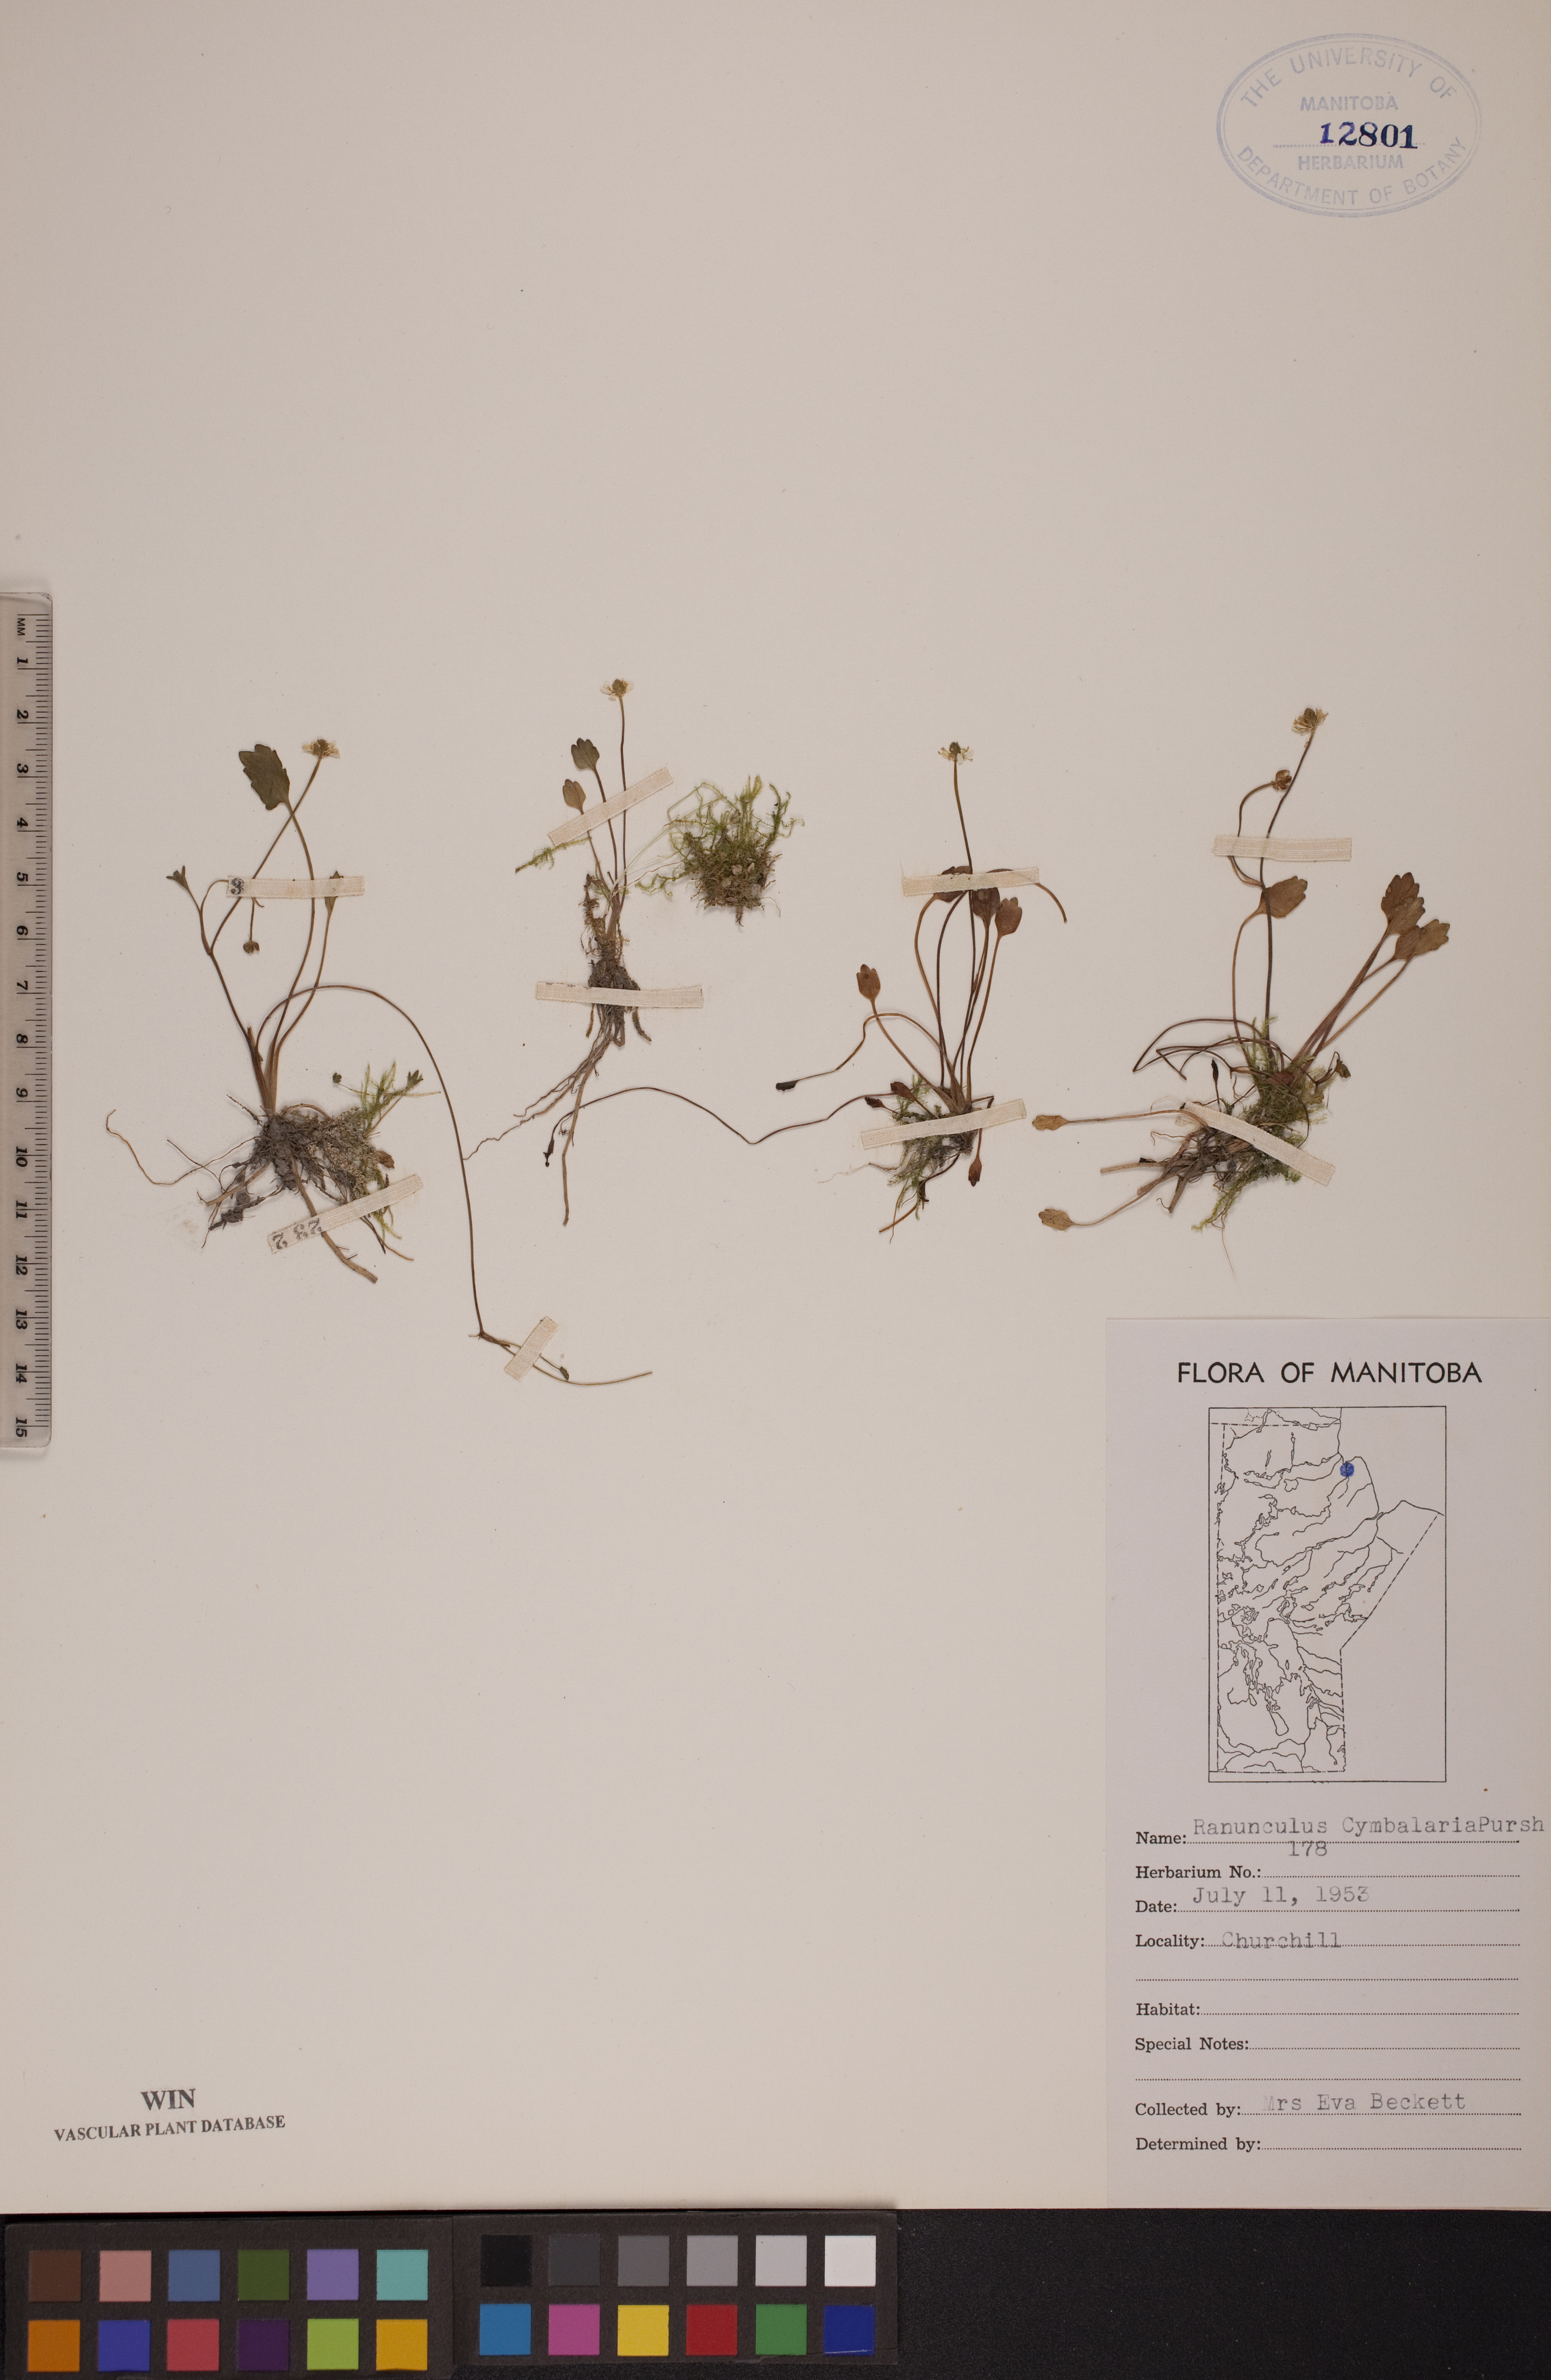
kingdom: Plantae
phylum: Tracheophyta
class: Magnoliopsida
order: Ranunculales
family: Ranunculaceae
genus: Halerpestes
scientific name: Halerpestes cymbalaria
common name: Seaside crowfoot
